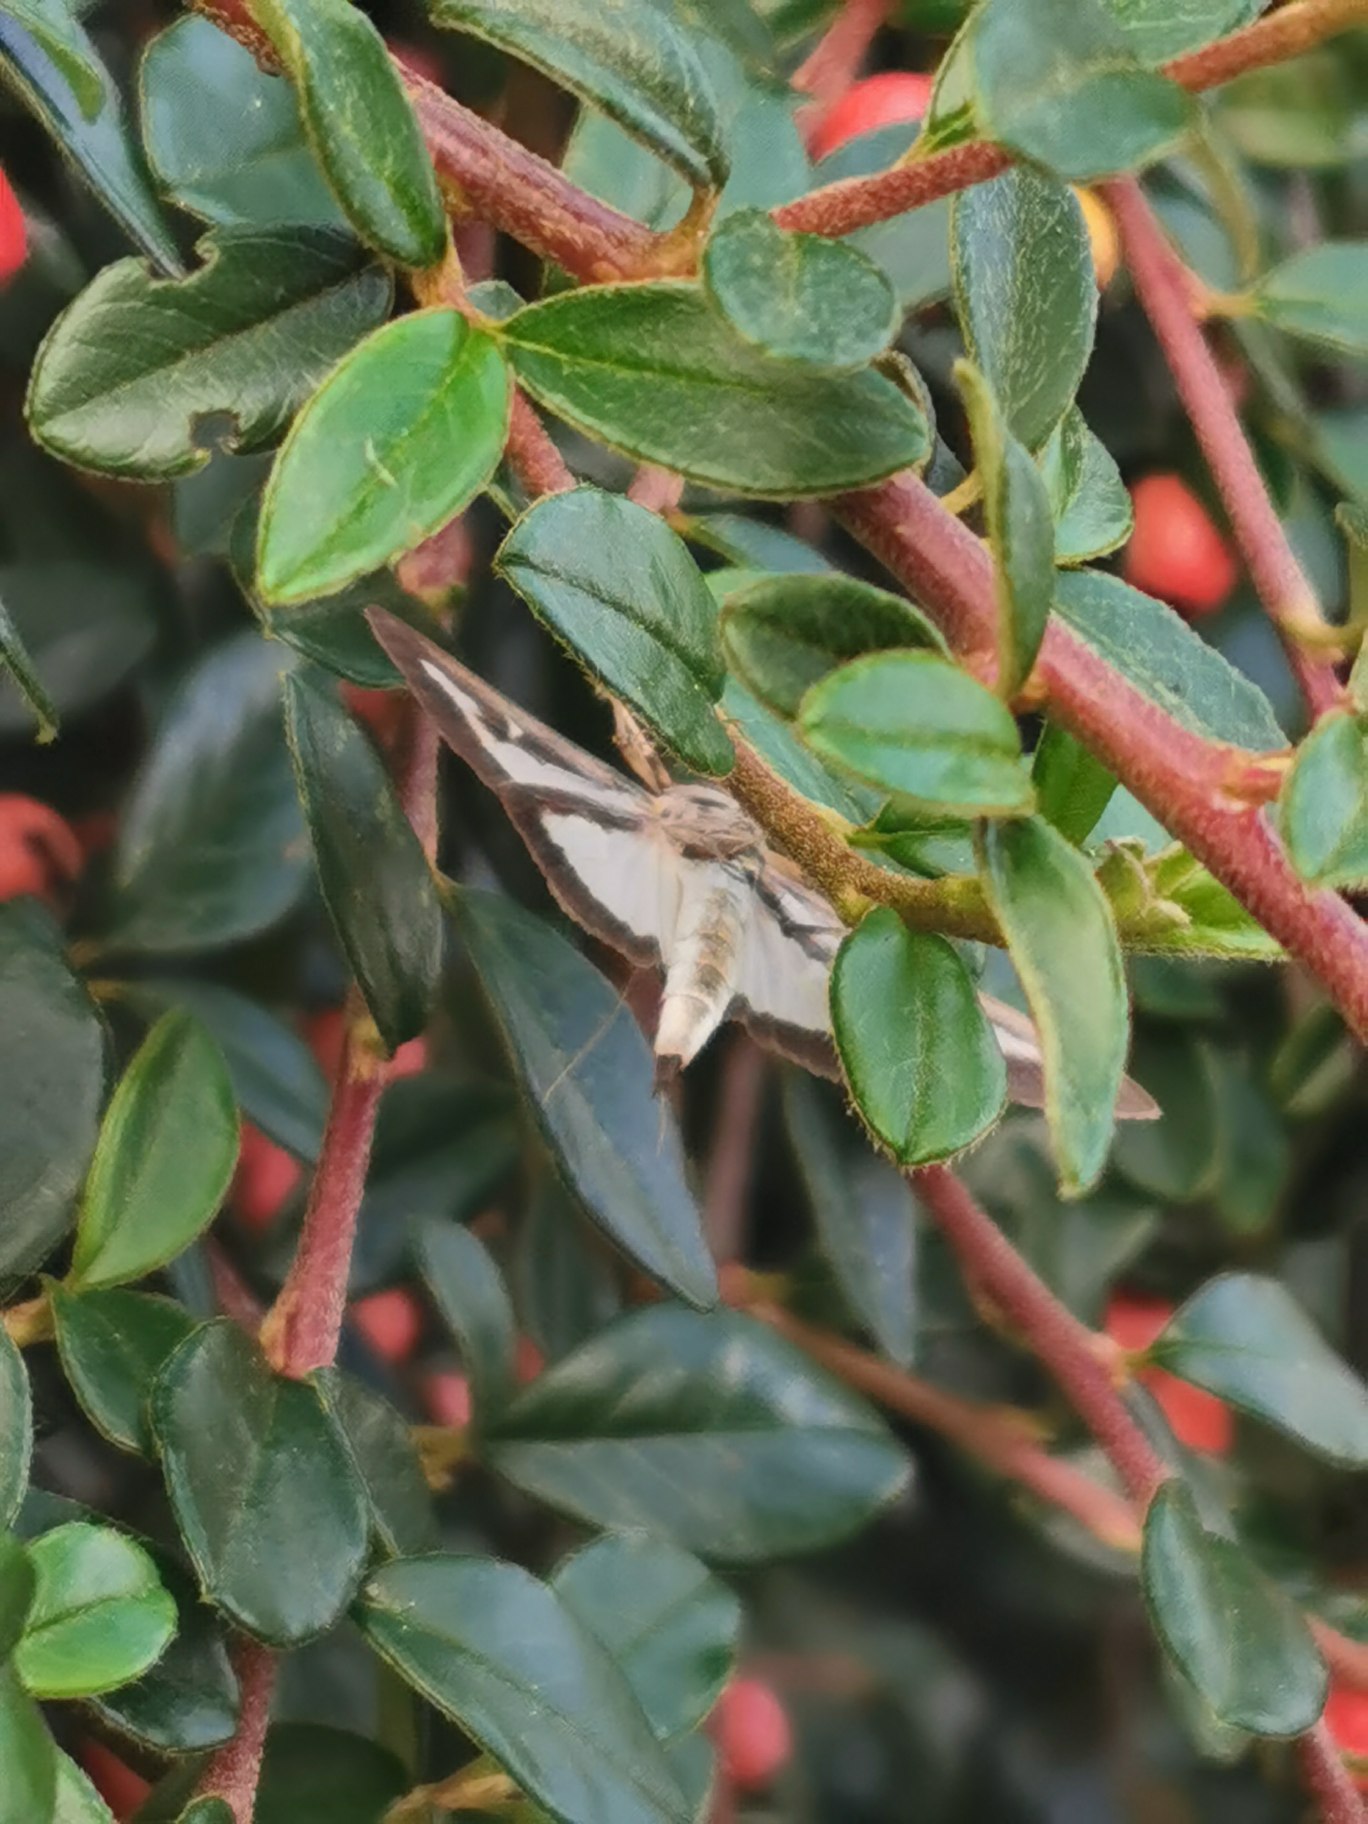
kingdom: Animalia
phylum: Arthropoda
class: Insecta
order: Lepidoptera
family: Crambidae
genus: Cydalima
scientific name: Cydalima perspectalis
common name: Buksbomhalvmøl
